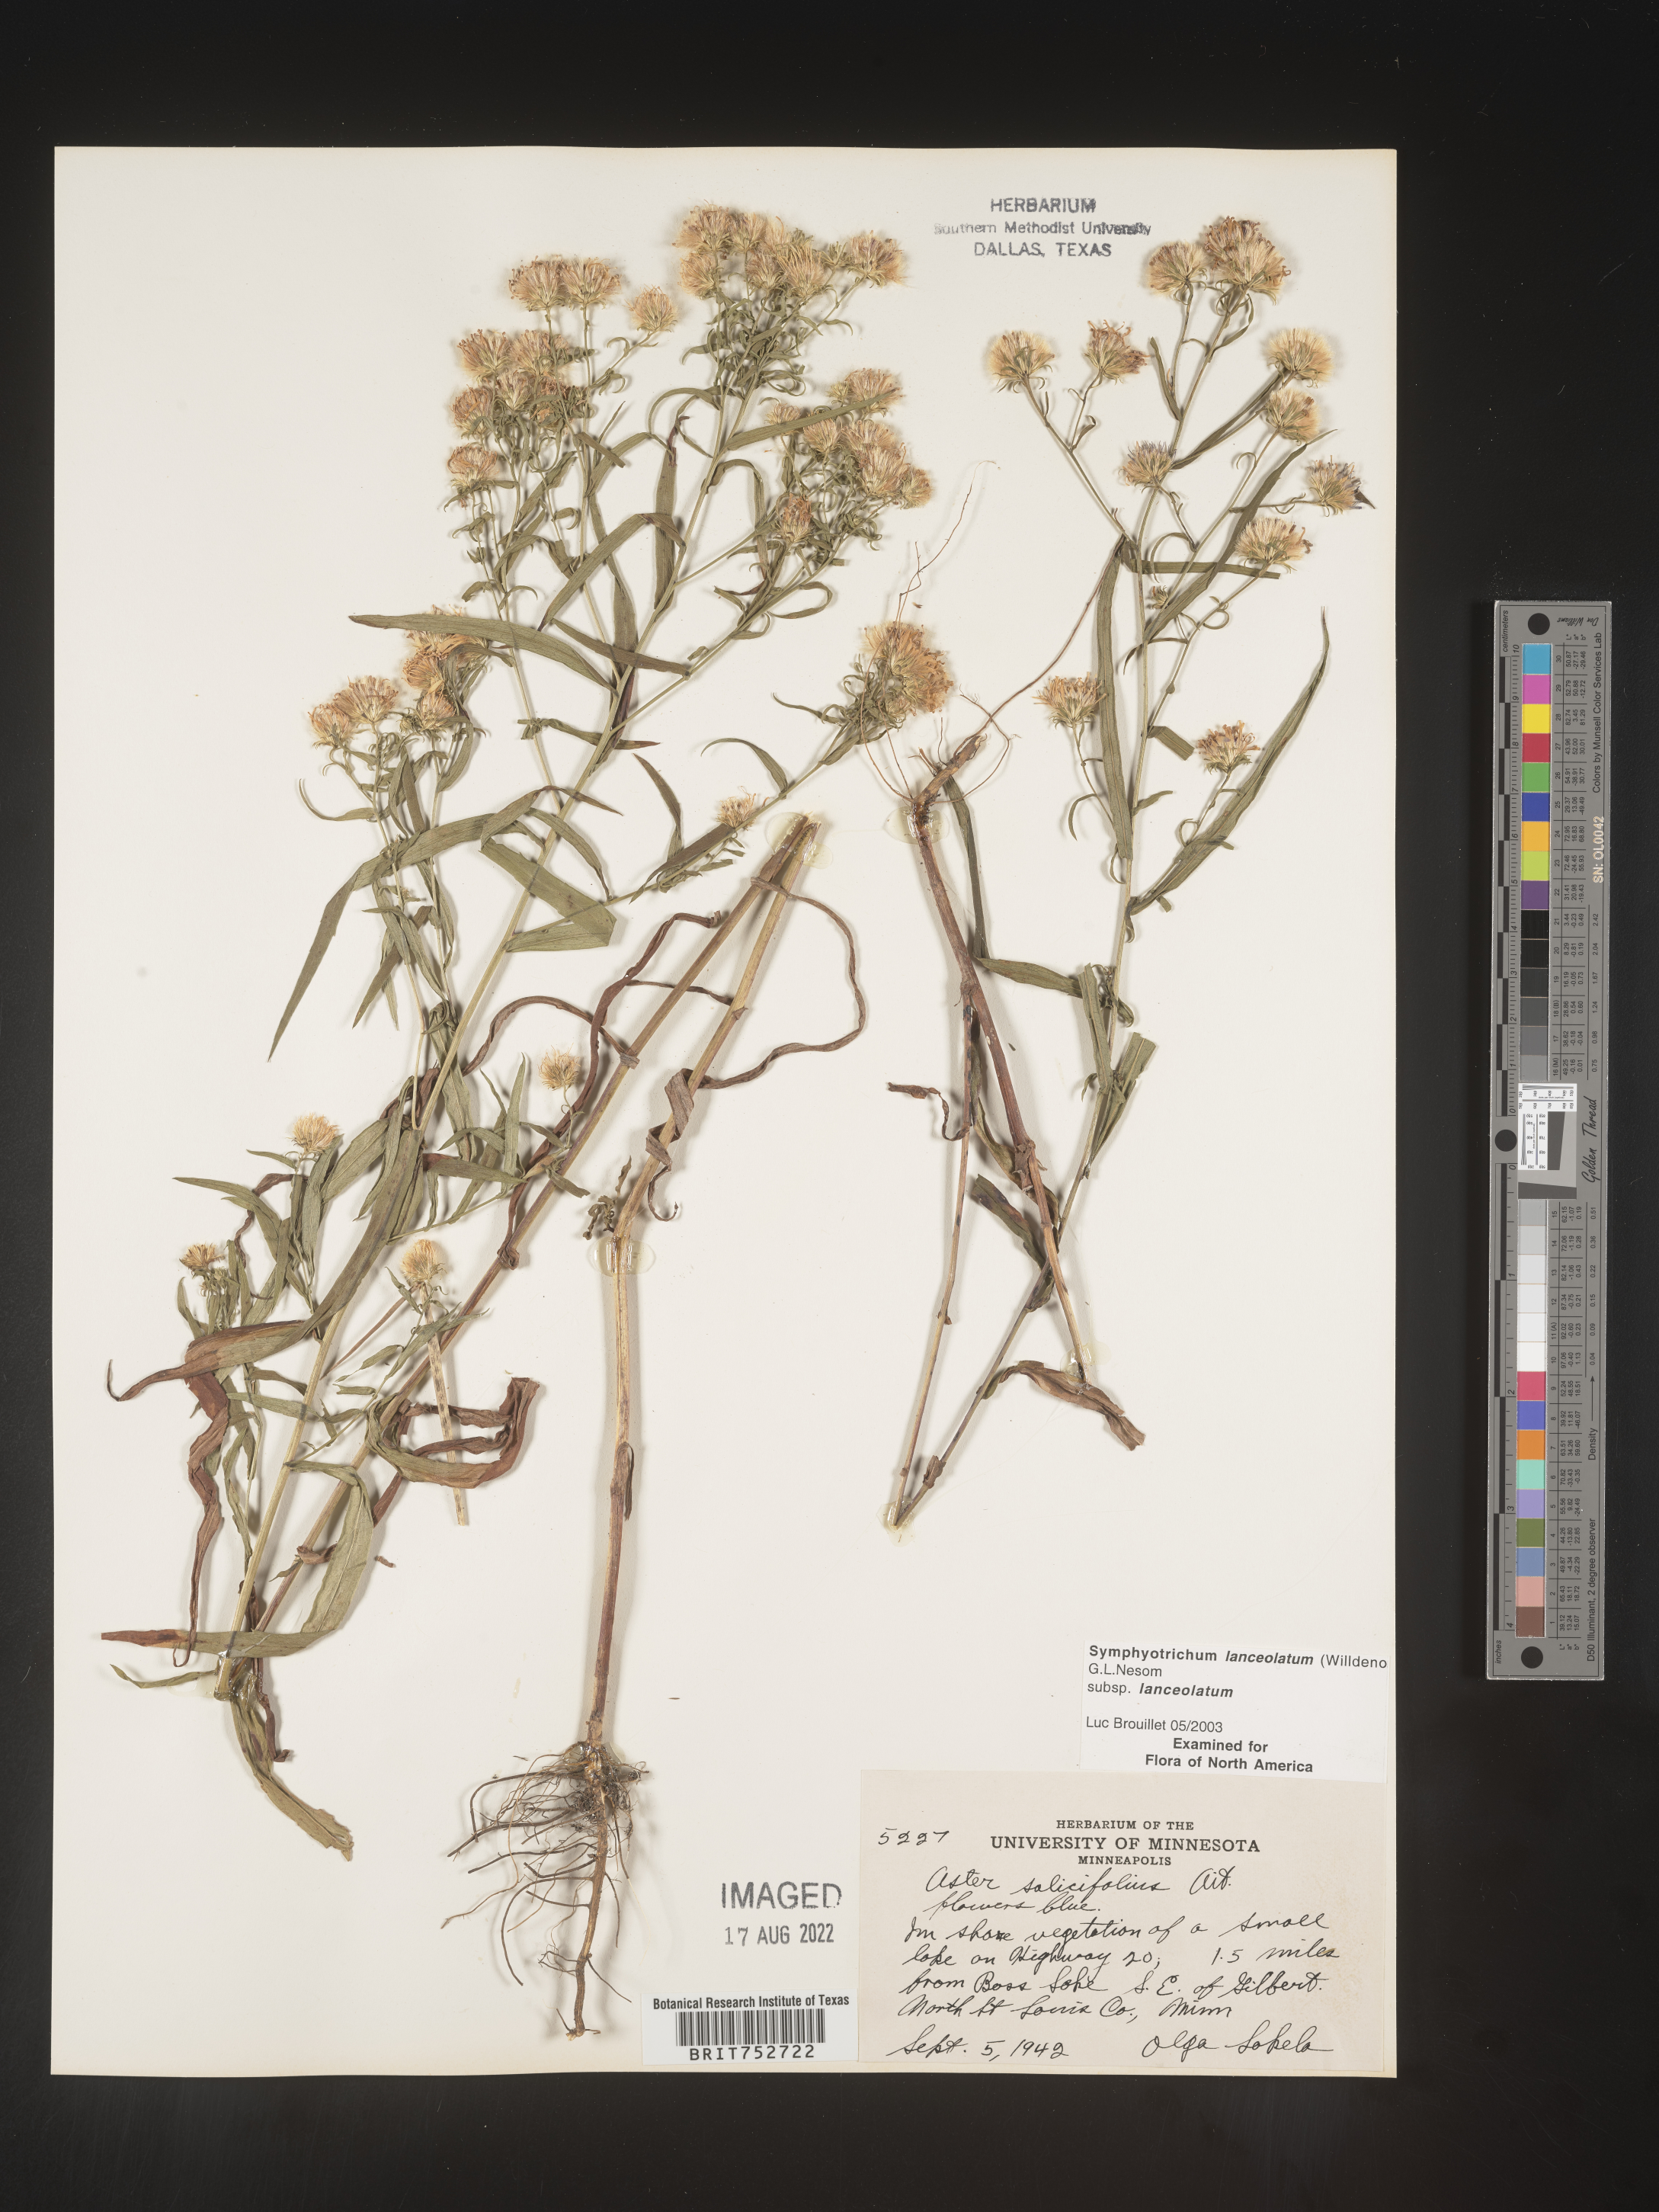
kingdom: Plantae
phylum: Tracheophyta
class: Magnoliopsida
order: Asterales
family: Asteraceae
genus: Symphyotrichum
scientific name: Symphyotrichum lanceolatum
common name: Panicled aster
